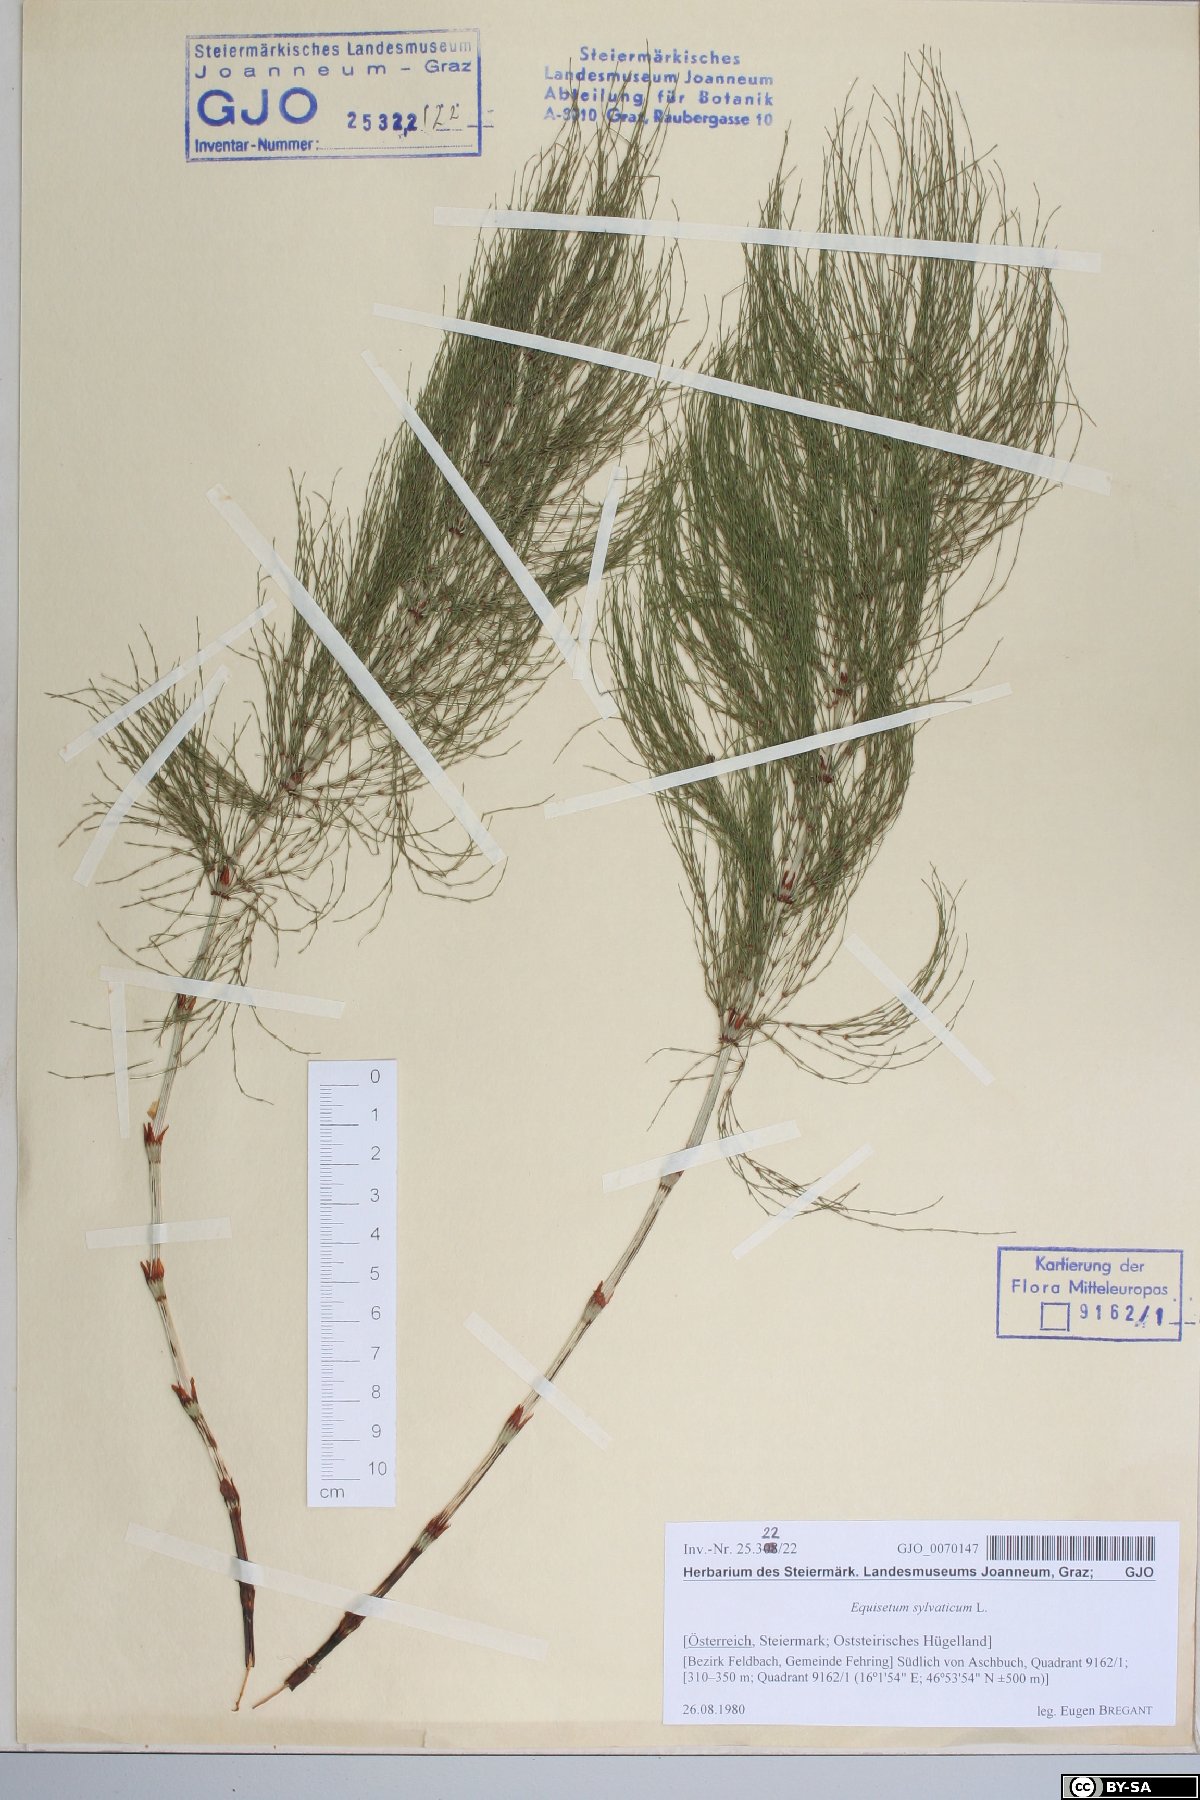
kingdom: Plantae
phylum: Tracheophyta
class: Polypodiopsida
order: Equisetales
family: Equisetaceae
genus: Equisetum
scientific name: Equisetum sylvaticum
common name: Wood horsetail
